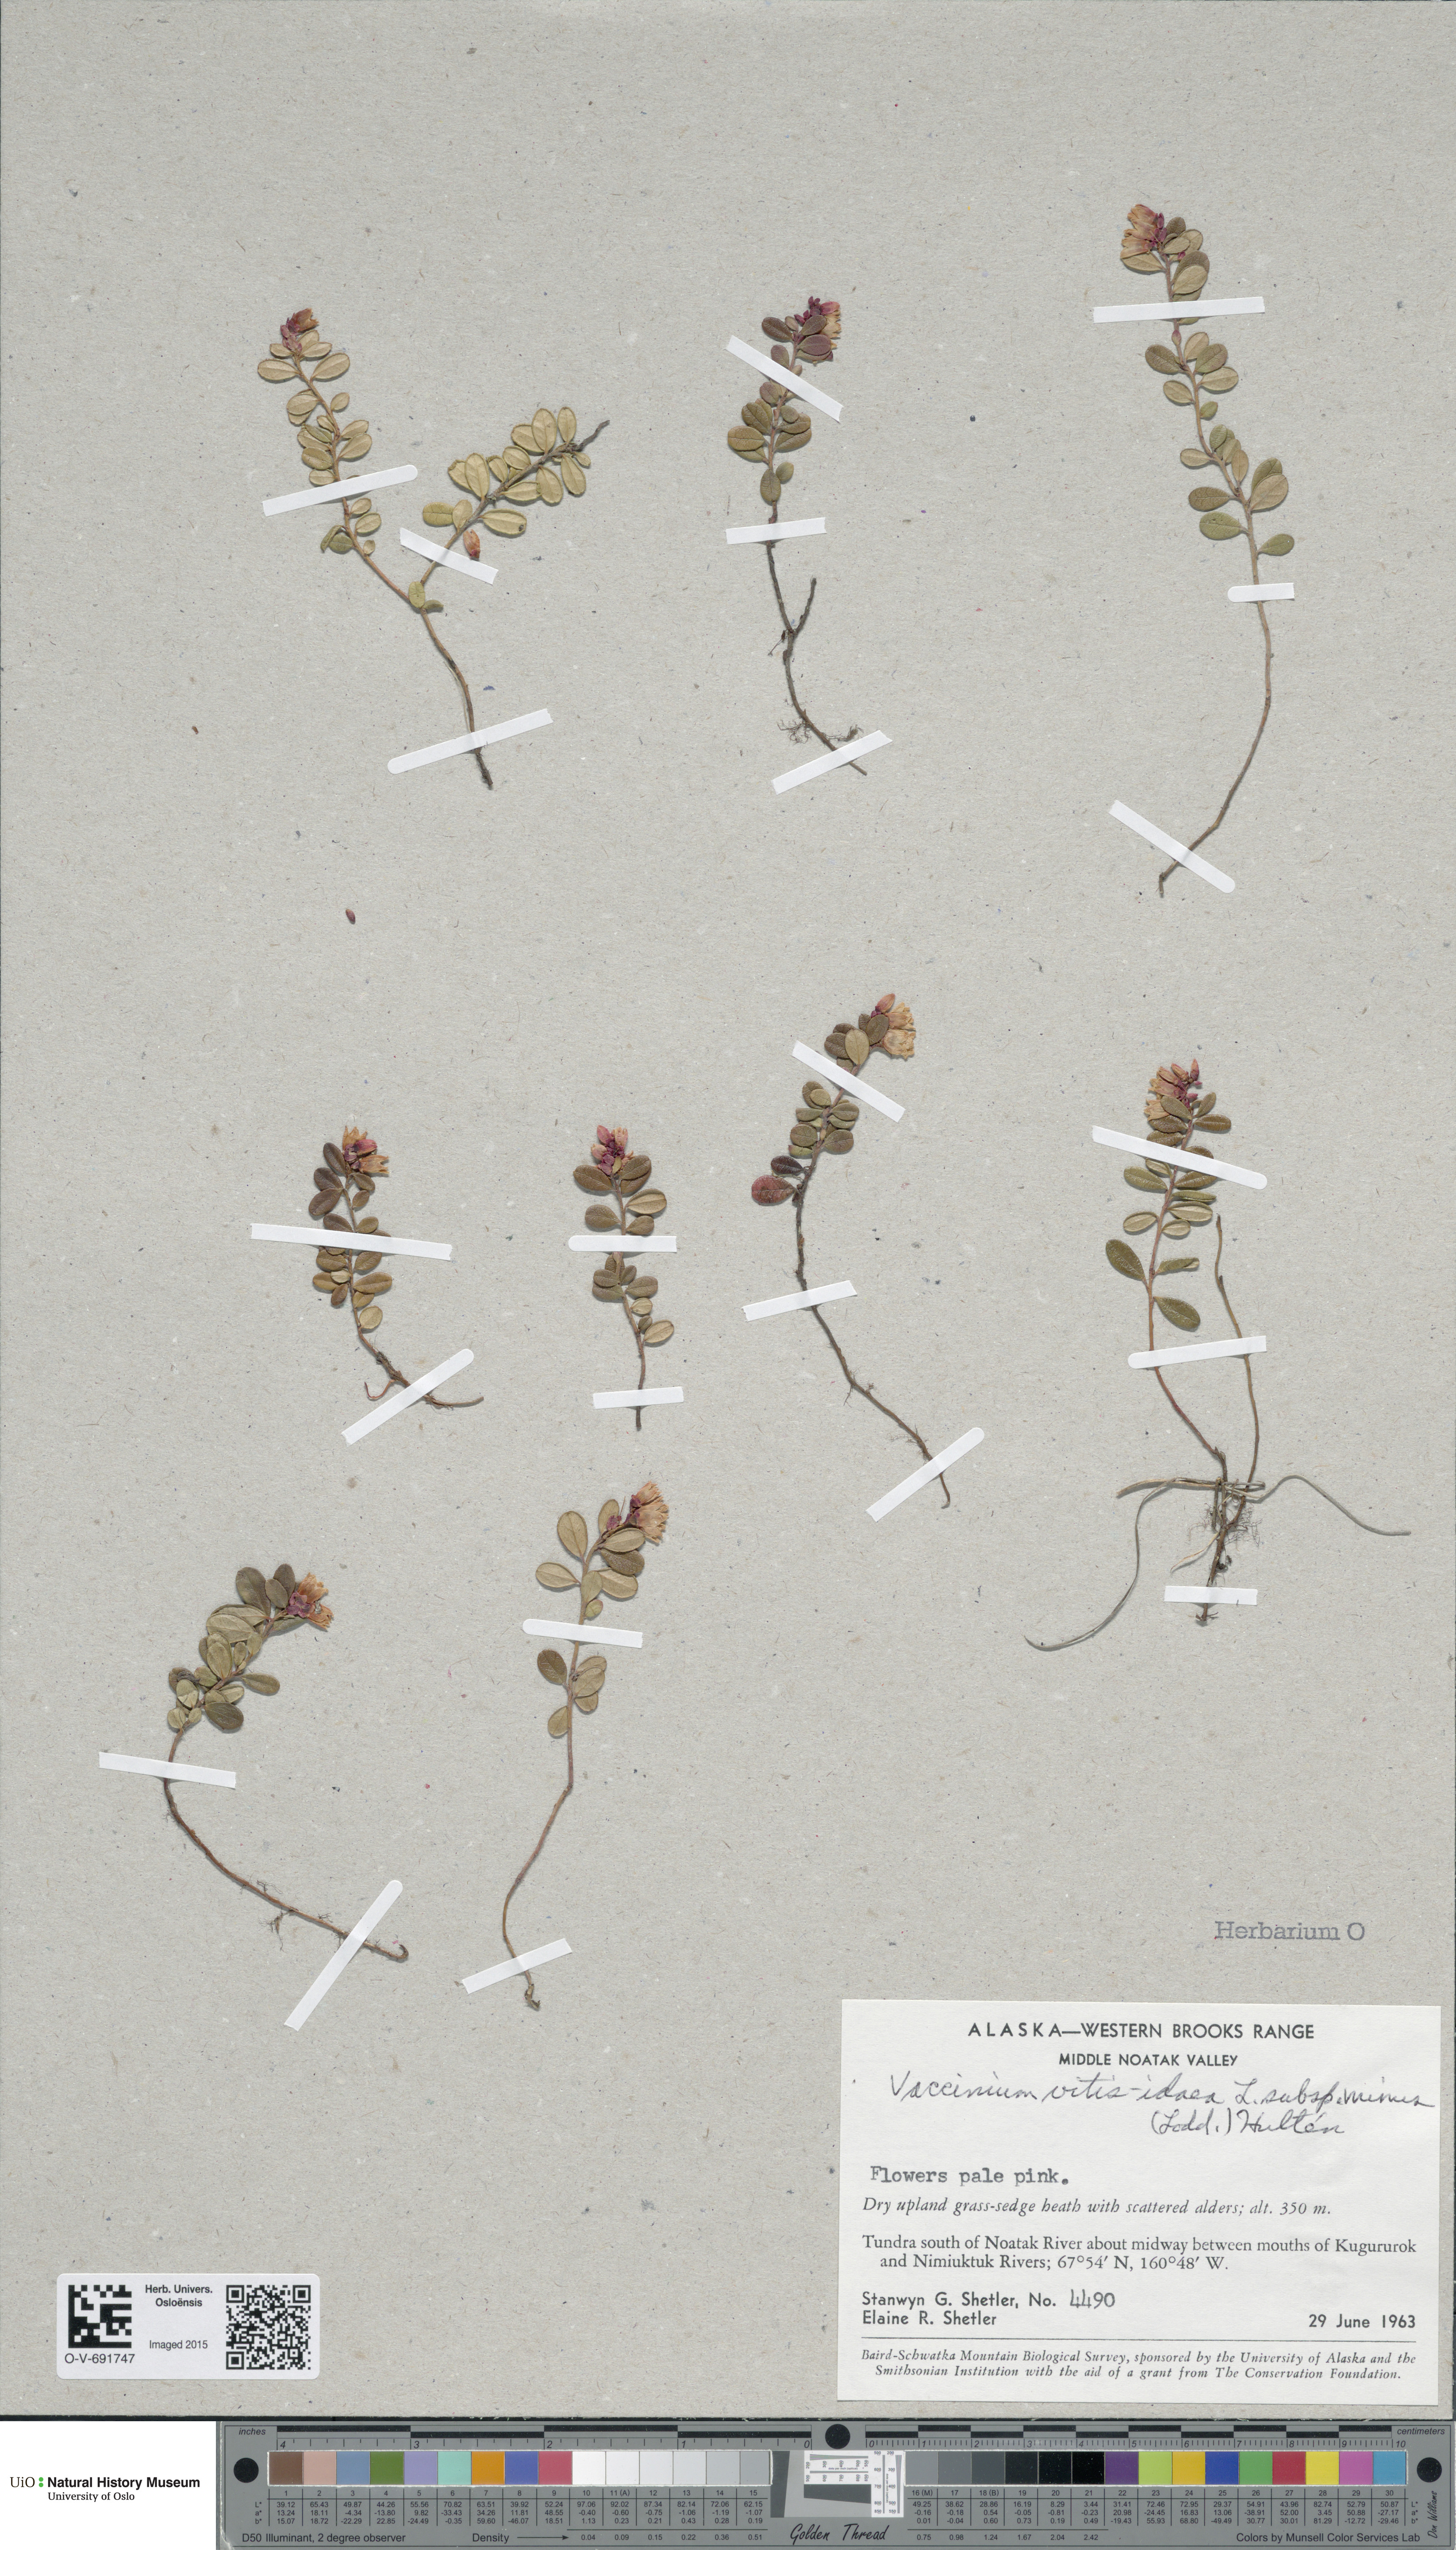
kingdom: Plantae
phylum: Tracheophyta
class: Magnoliopsida
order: Ericales
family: Ericaceae
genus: Vaccinium
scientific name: Vaccinium vitis-idaea
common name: Cowberry
